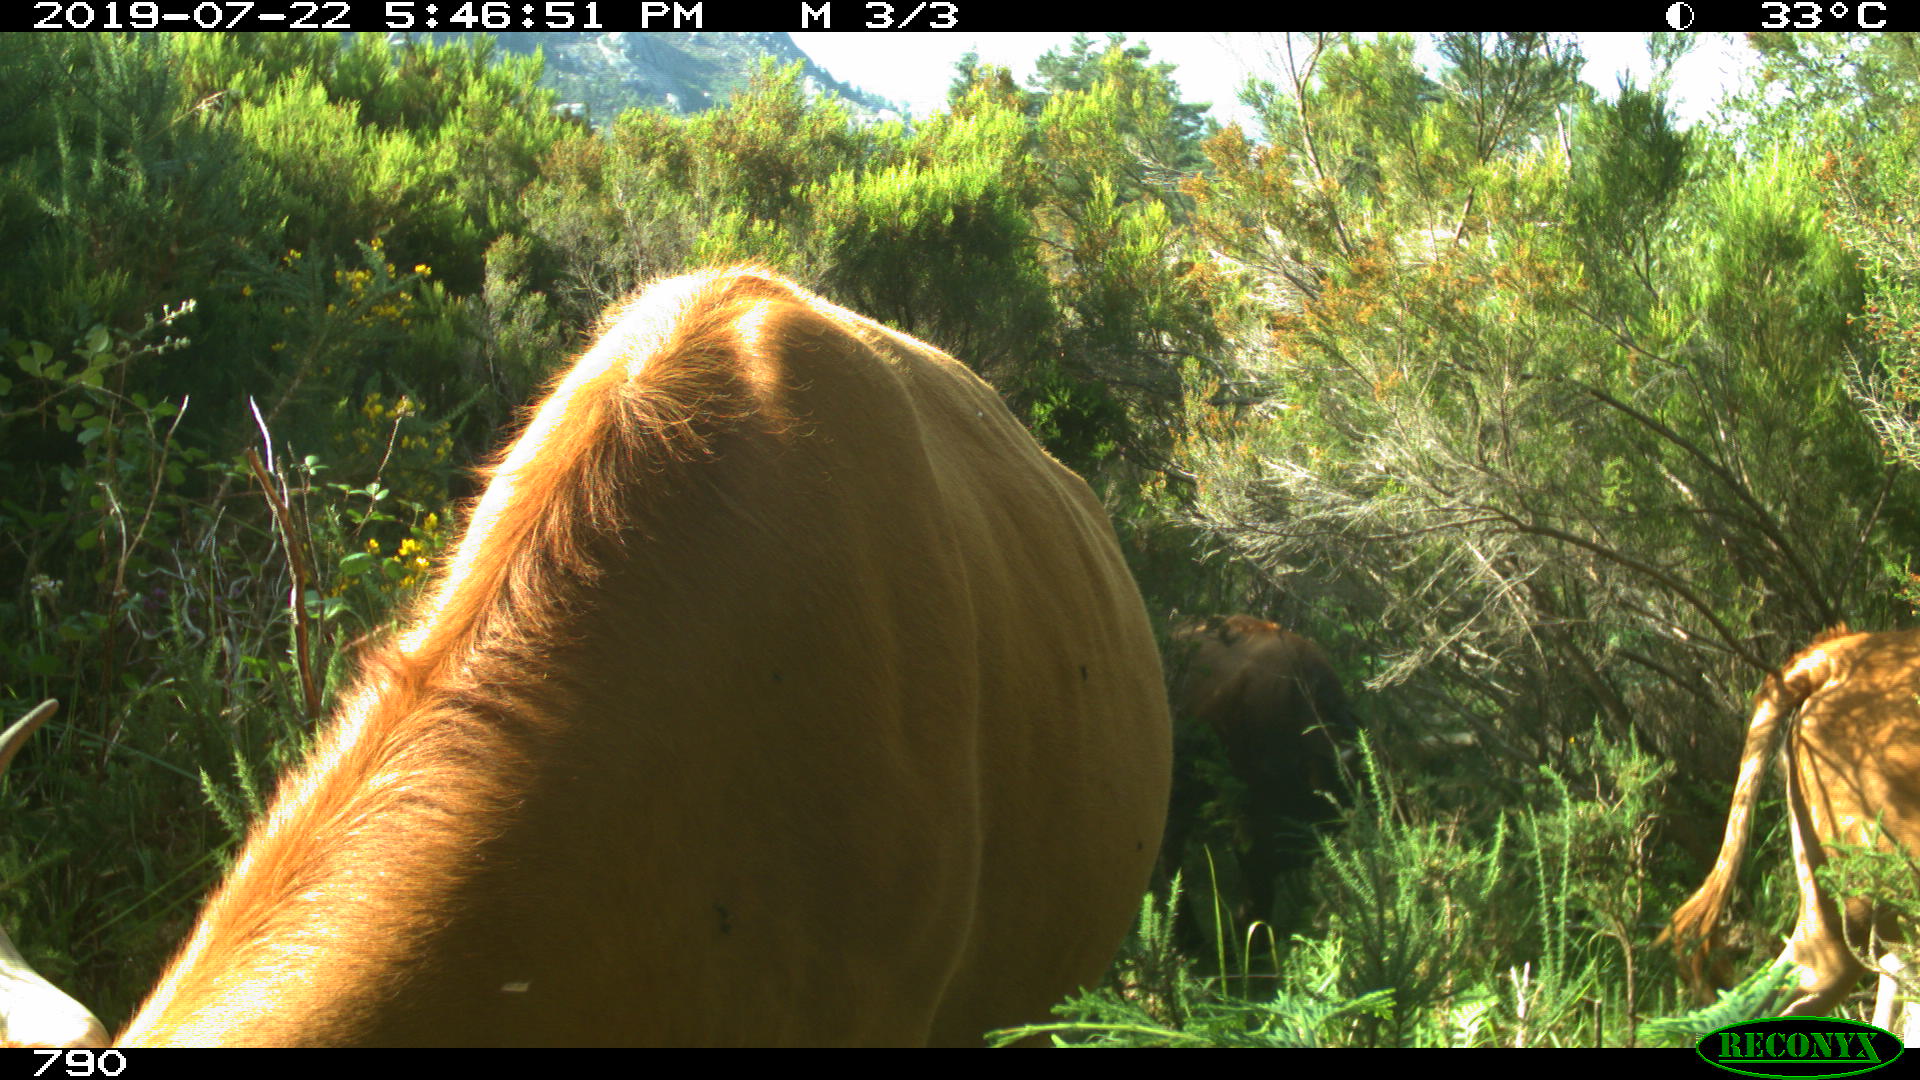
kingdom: Animalia
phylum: Chordata
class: Mammalia
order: Artiodactyla
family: Bovidae
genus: Bos
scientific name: Bos taurus
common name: Domesticated cattle
